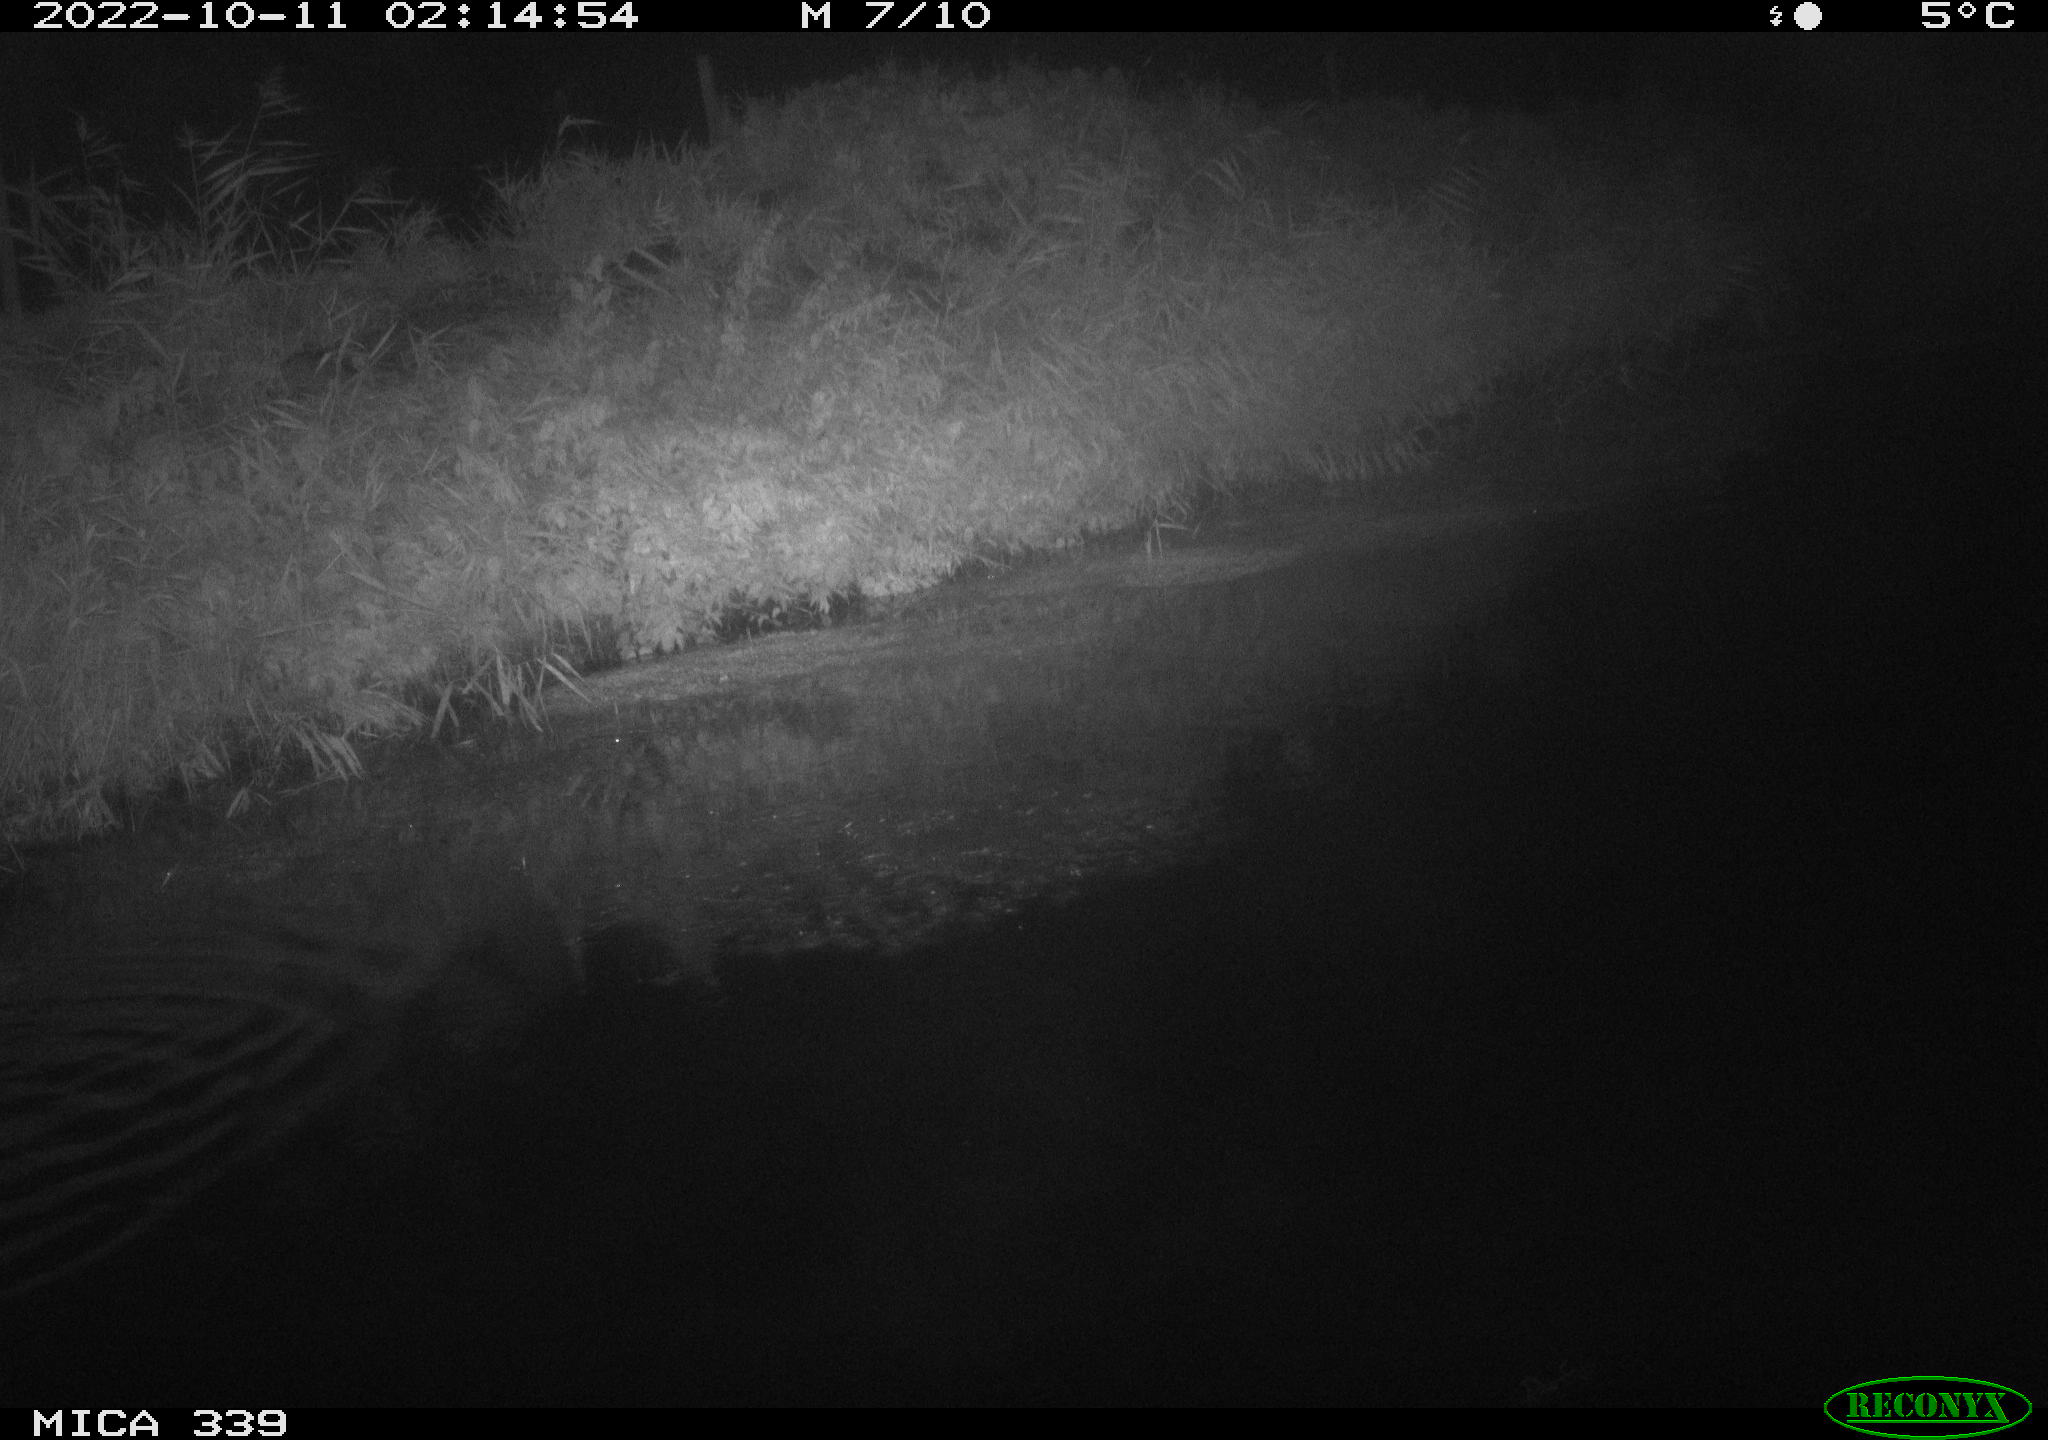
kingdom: Animalia
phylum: Chordata
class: Aves
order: Pelecaniformes
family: Ardeidae
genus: Ardea
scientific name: Ardea cinerea
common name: Grey heron
